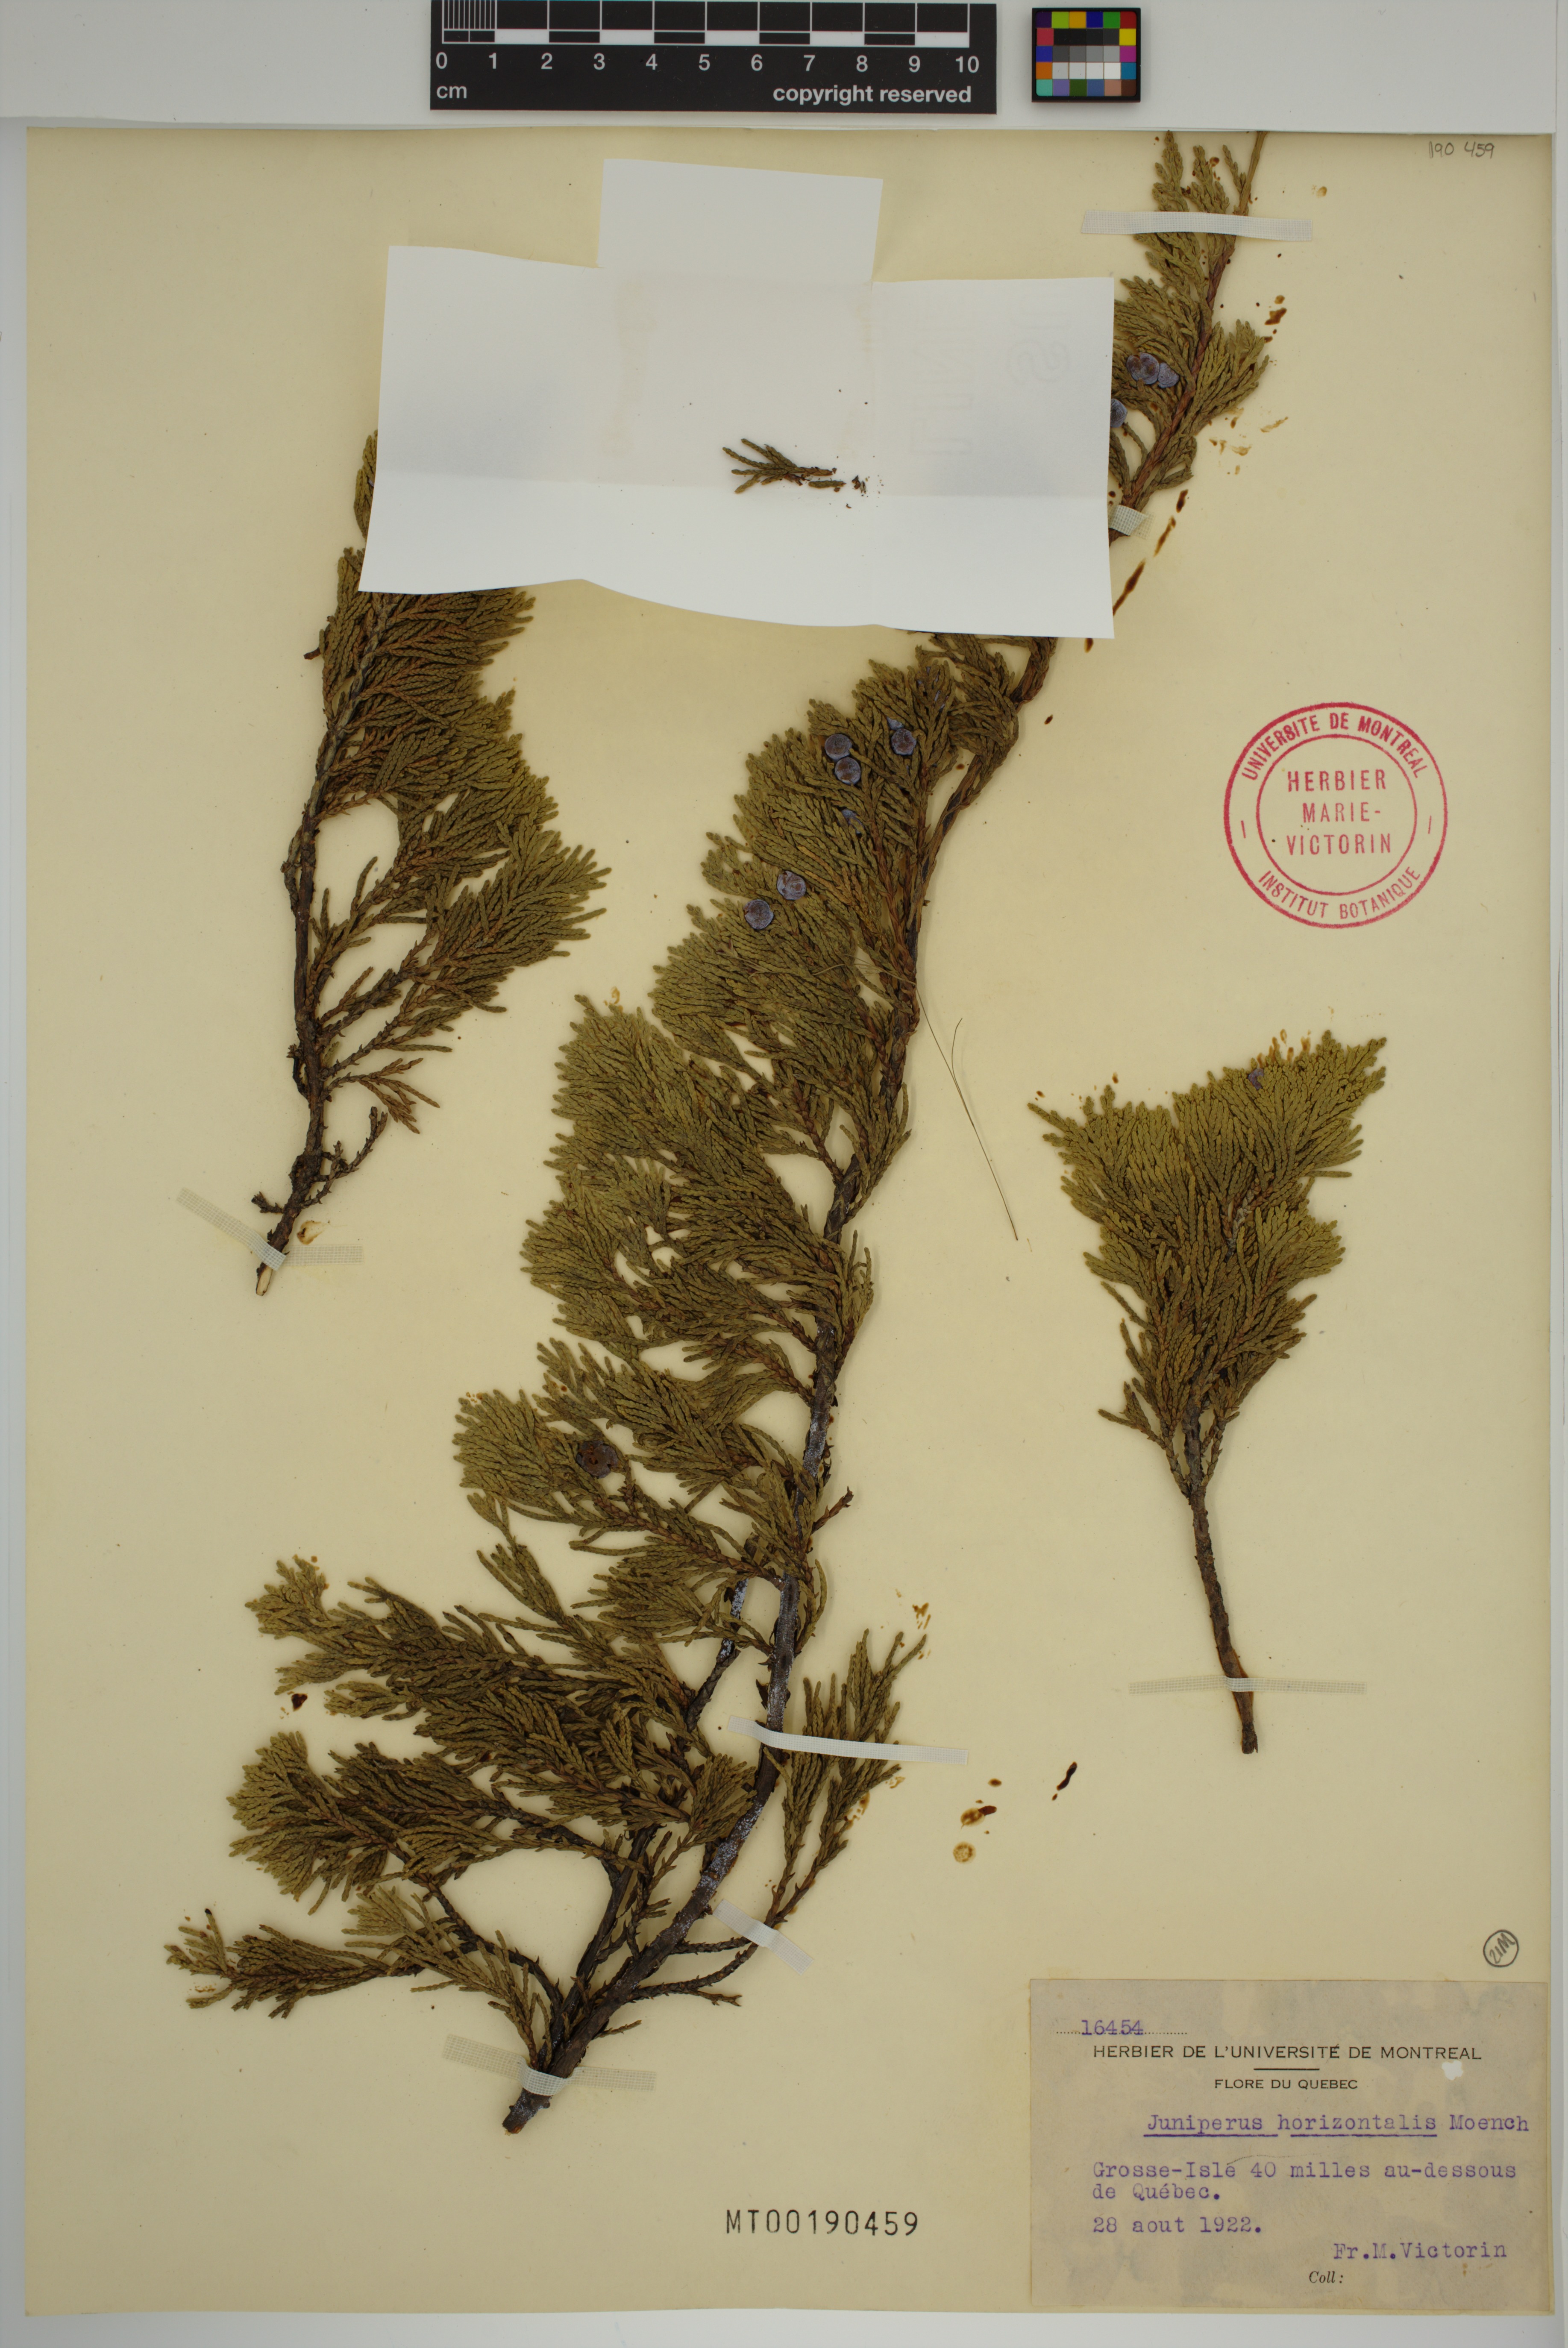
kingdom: Plantae
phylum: Tracheophyta
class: Pinopsida
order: Pinales
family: Cupressaceae
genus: Juniperus
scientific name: Juniperus horizontalis
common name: Creeping juniper
